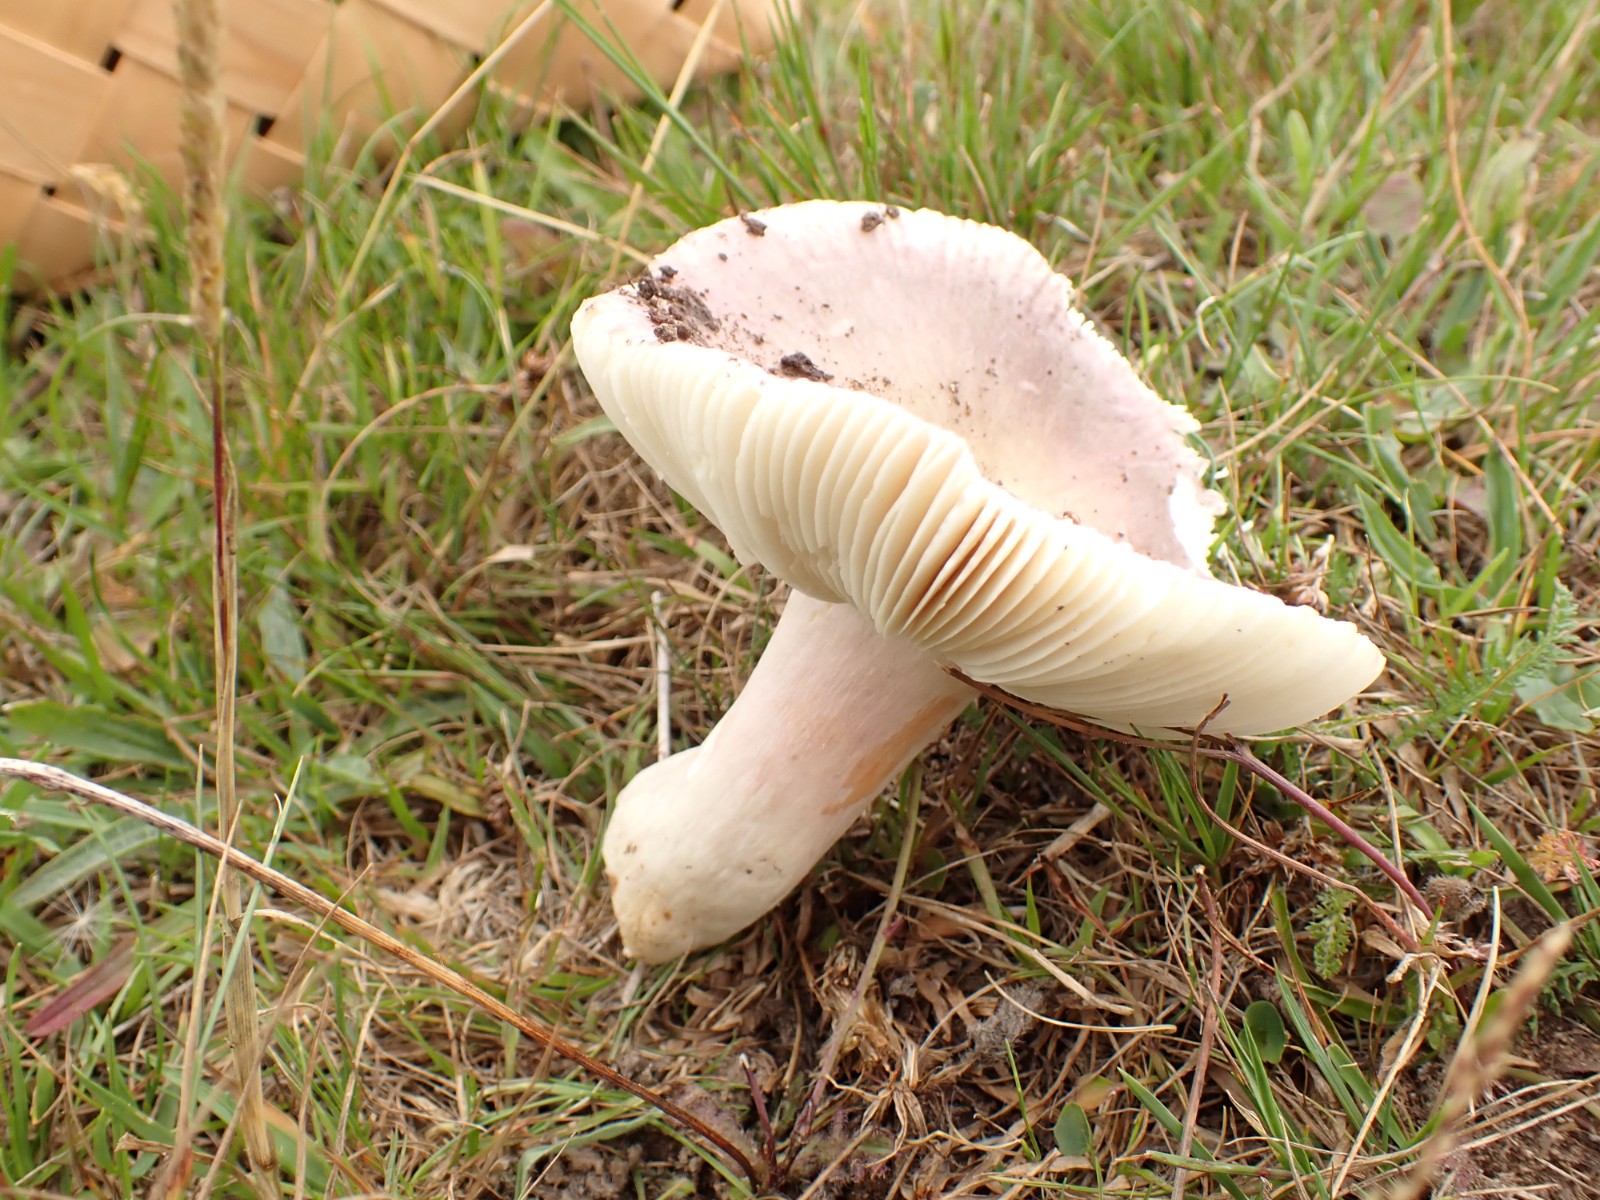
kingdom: Fungi
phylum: Basidiomycota
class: Agaricomycetes
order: Russulales
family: Russulaceae
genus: Russula
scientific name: Russula ionochlora
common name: violetgrøn skørhat
